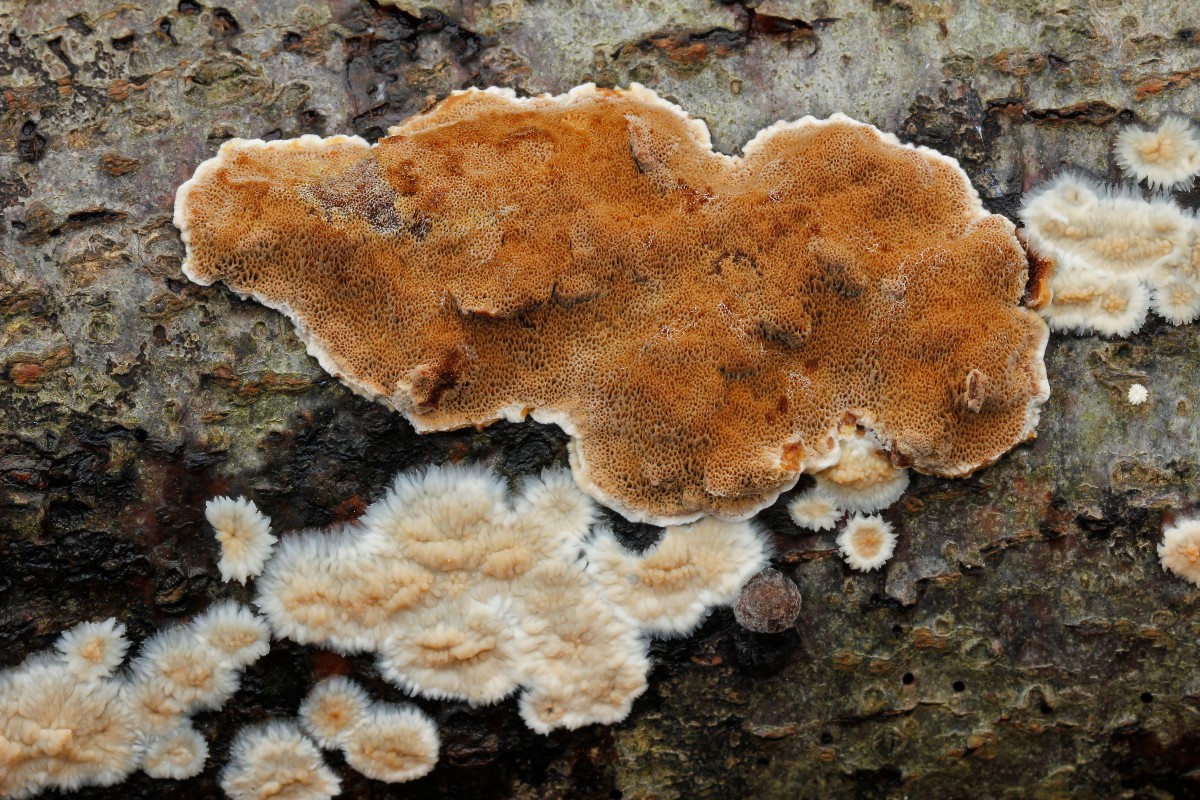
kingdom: Fungi
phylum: Basidiomycota
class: Agaricomycetes
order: Polyporales
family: Steccherinaceae
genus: Junghuhnia
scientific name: Junghuhnia nitida
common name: almindelig skønporesvamp
